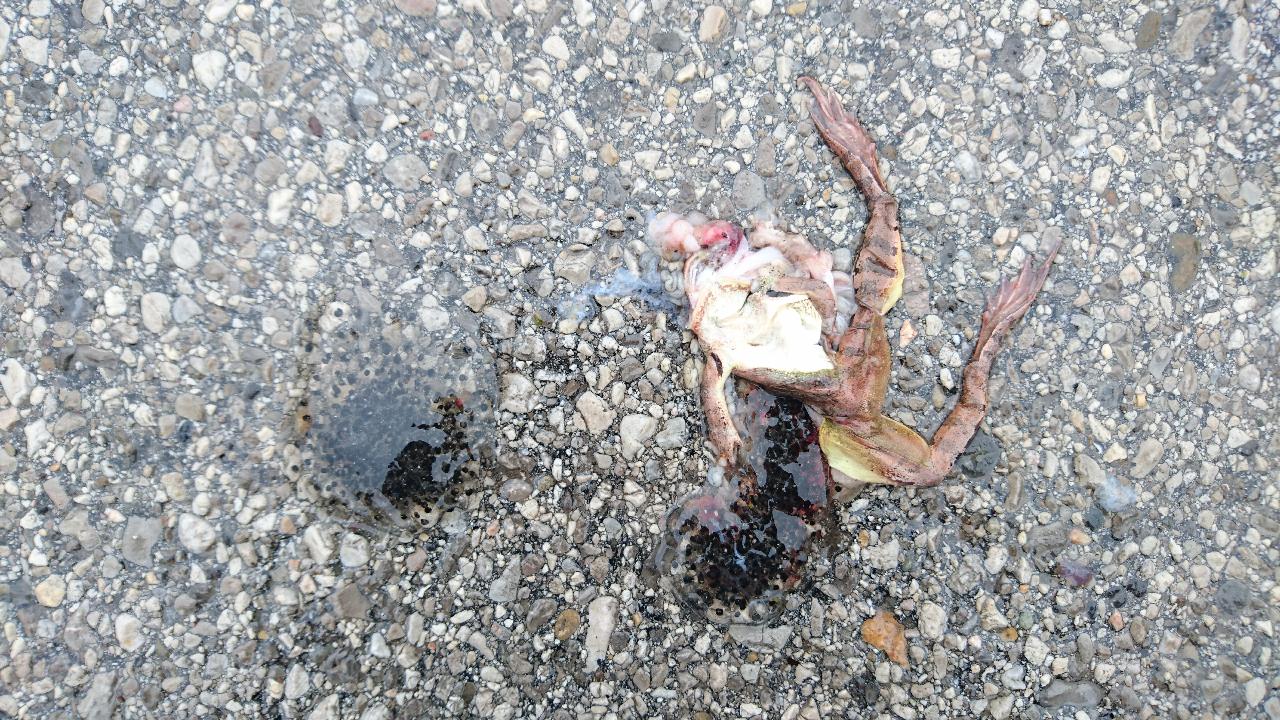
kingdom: Animalia
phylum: Chordata
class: Amphibia
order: Anura
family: Ranidae
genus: Rana
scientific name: Rana dalmatina
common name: Agile frog
